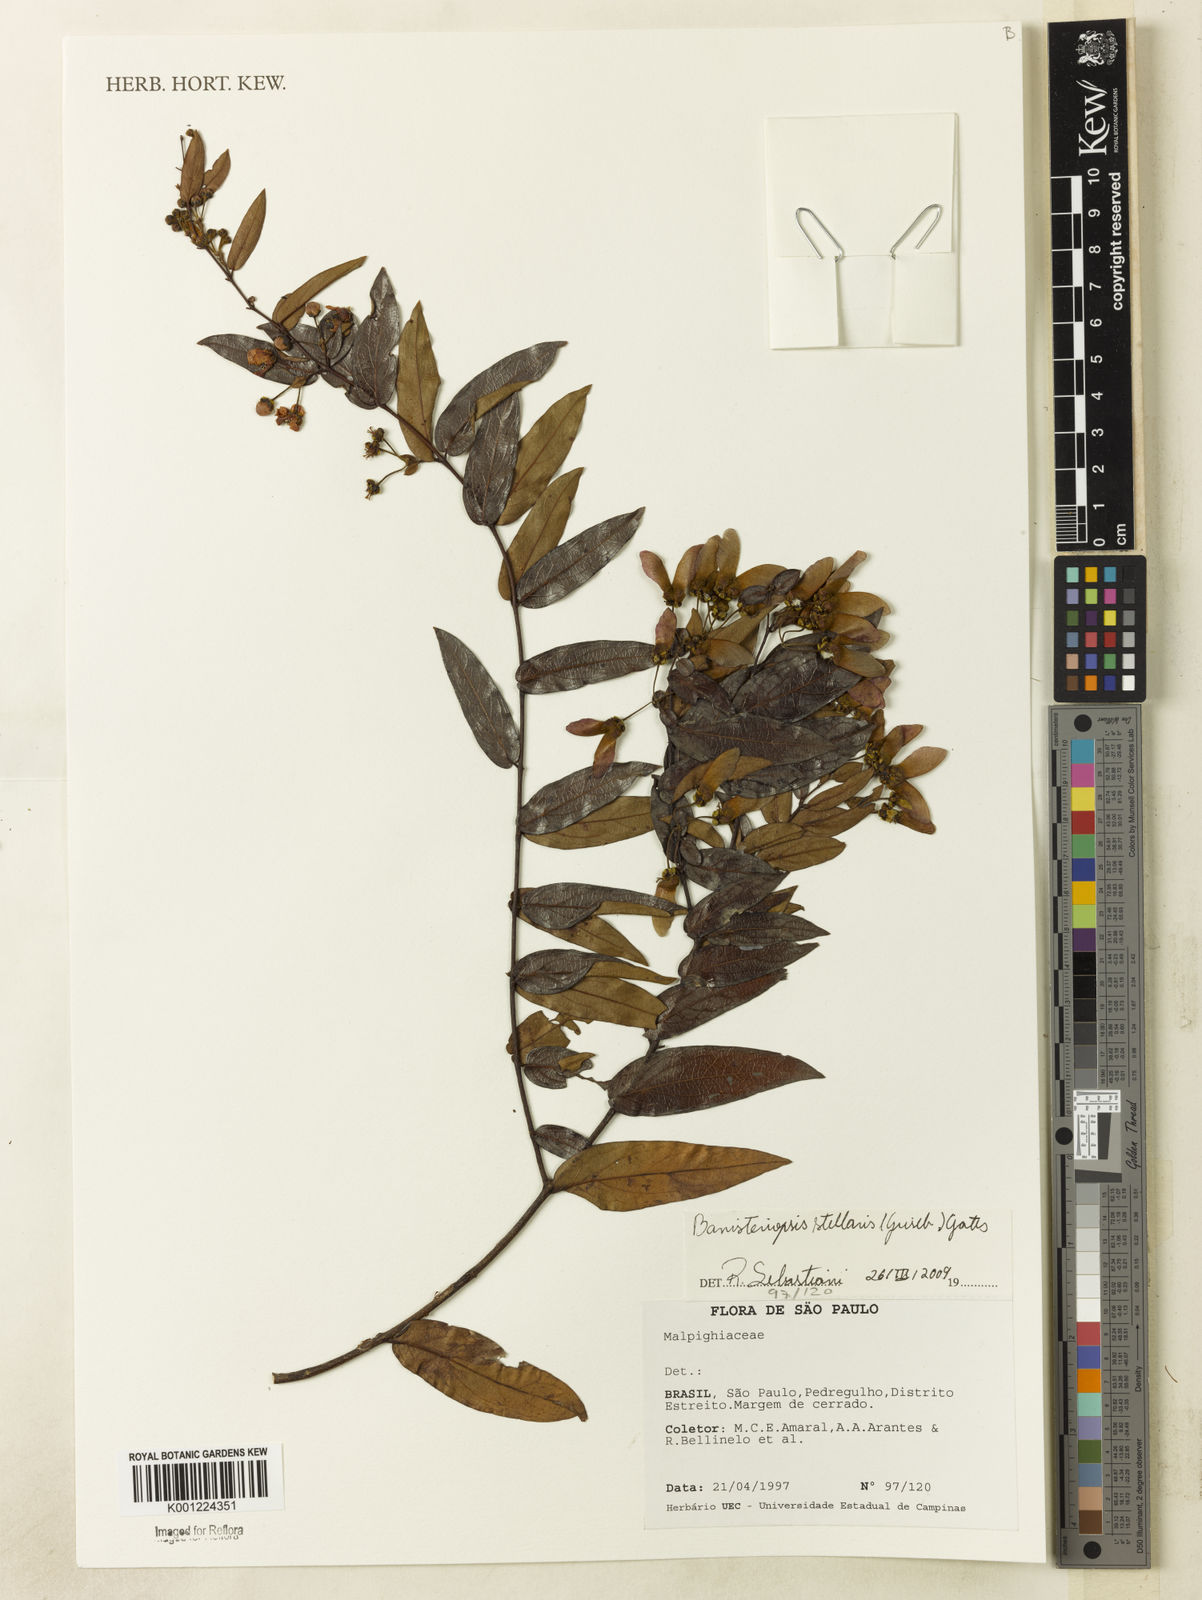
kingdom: Plantae
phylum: Tracheophyta
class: Magnoliopsida
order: Malpighiales
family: Malpighiaceae
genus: Banisteriopsis
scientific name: Banisteriopsis stellaris
